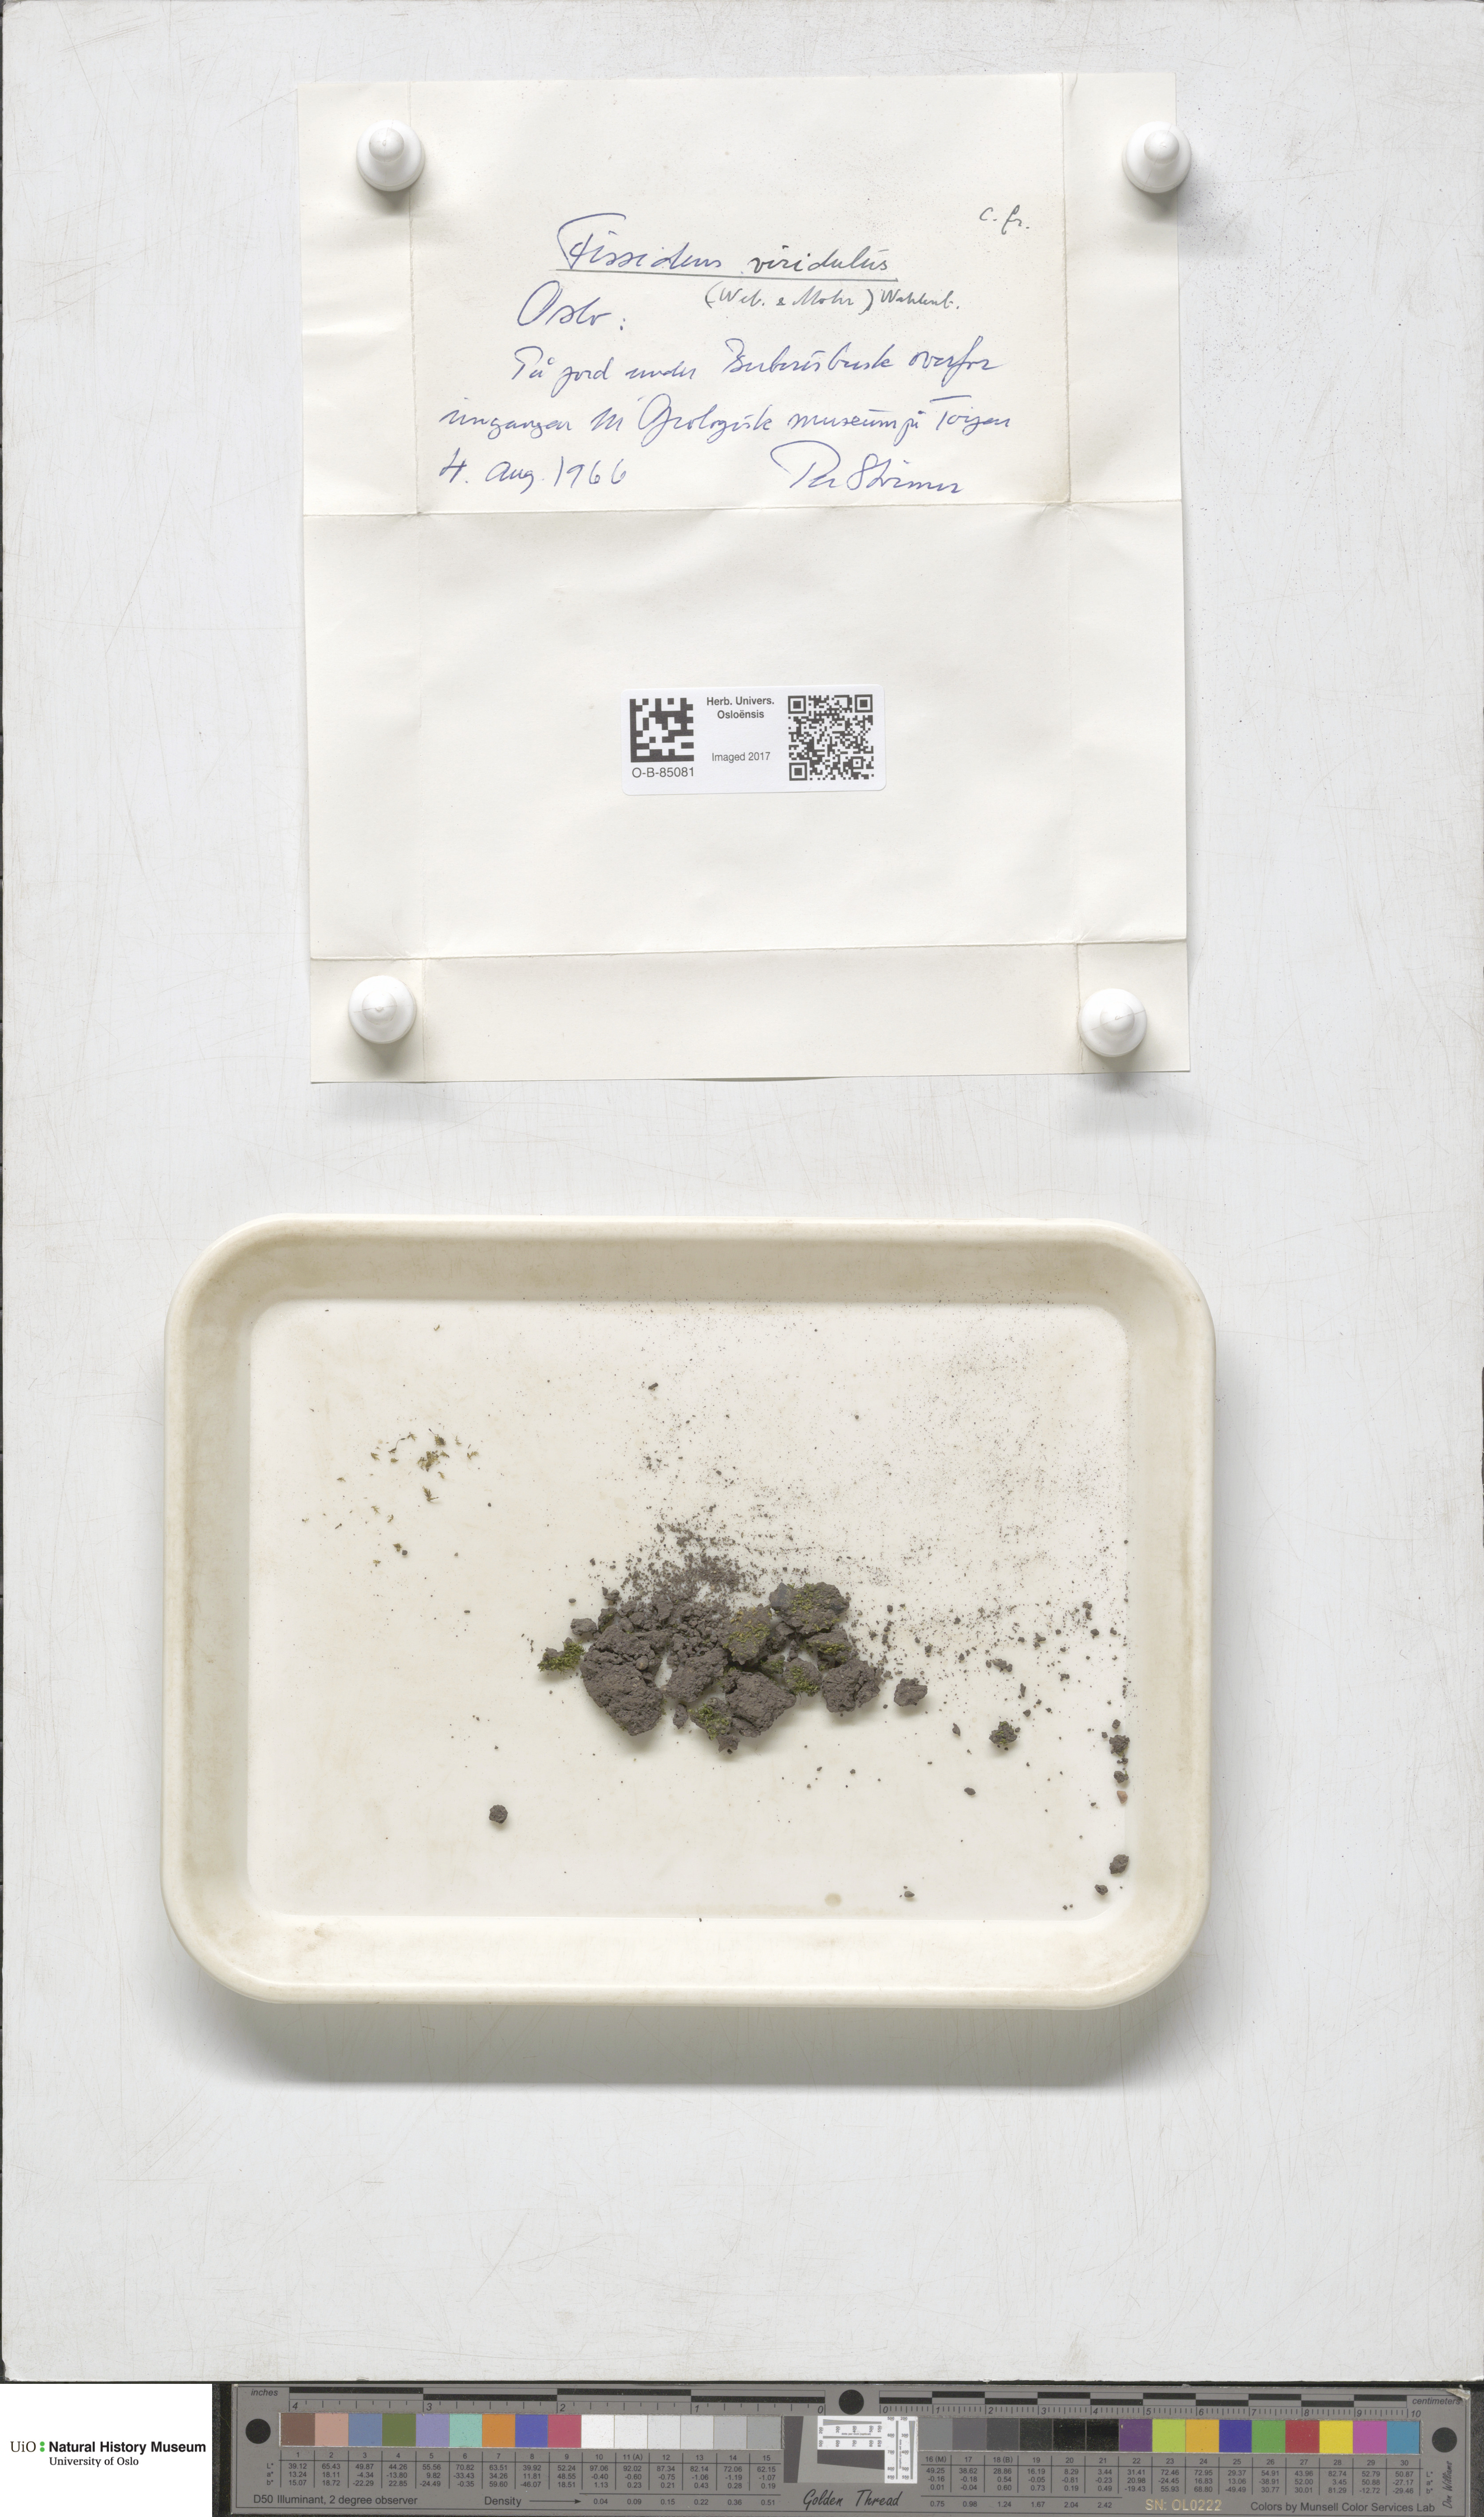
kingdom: Plantae
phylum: Bryophyta
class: Bryopsida
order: Dicranales
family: Fissidentaceae
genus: Fissidens
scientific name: Fissidens viridulus
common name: Green pocket-moss
